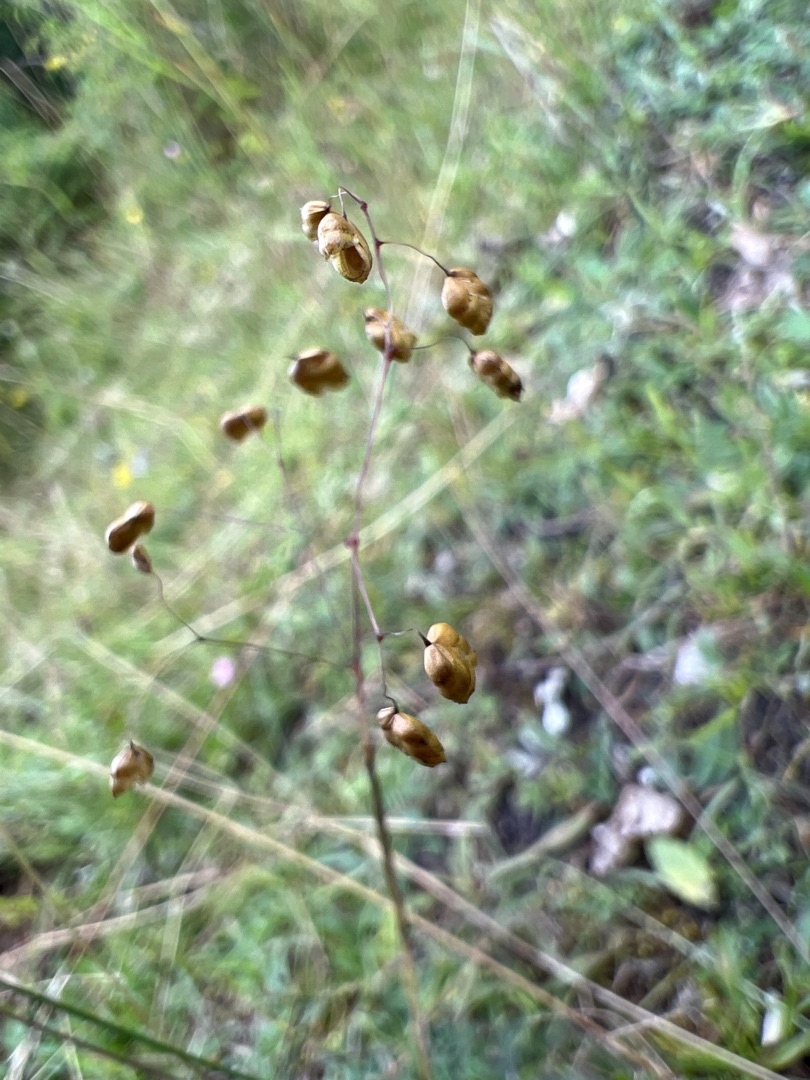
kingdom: Plantae
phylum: Tracheophyta
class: Liliopsida
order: Poales
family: Poaceae
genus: Briza
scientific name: Briza media
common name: Hjertegræs
